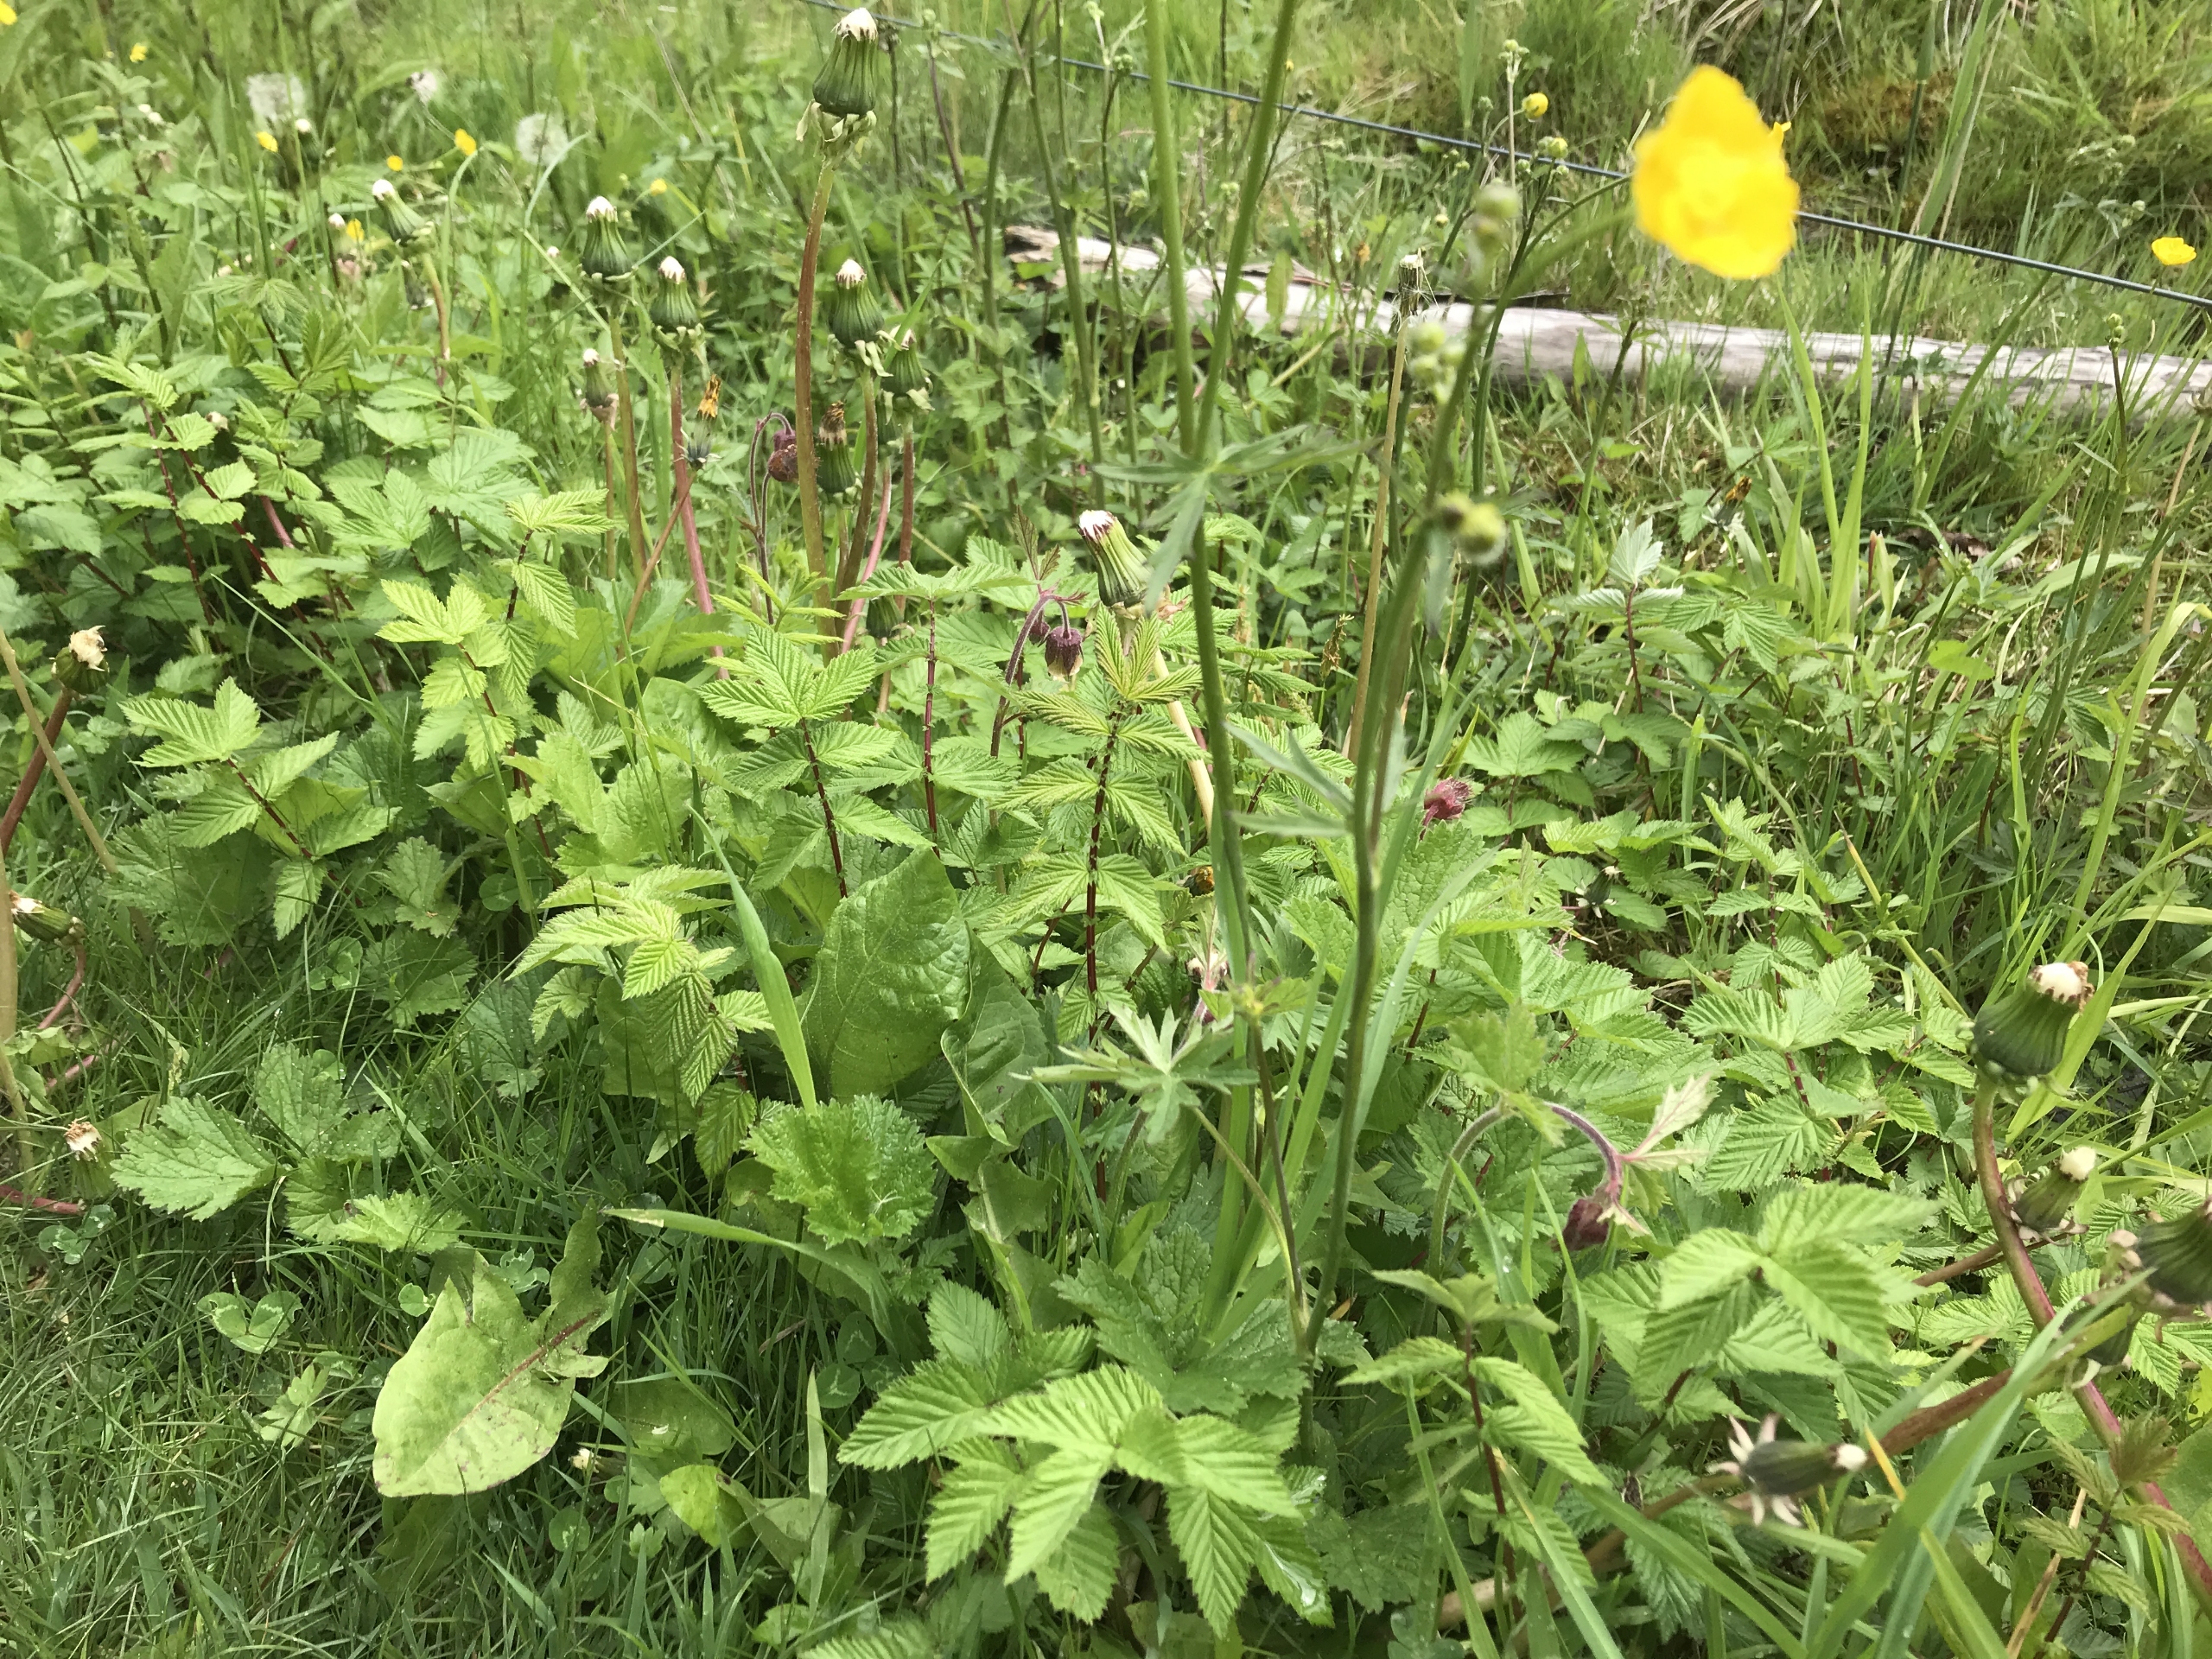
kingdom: Plantae
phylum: Tracheophyta
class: Magnoliopsida
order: Ranunculales
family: Ranunculaceae
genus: Ranunculus
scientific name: Ranunculus acris
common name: Bidende ranunkel
